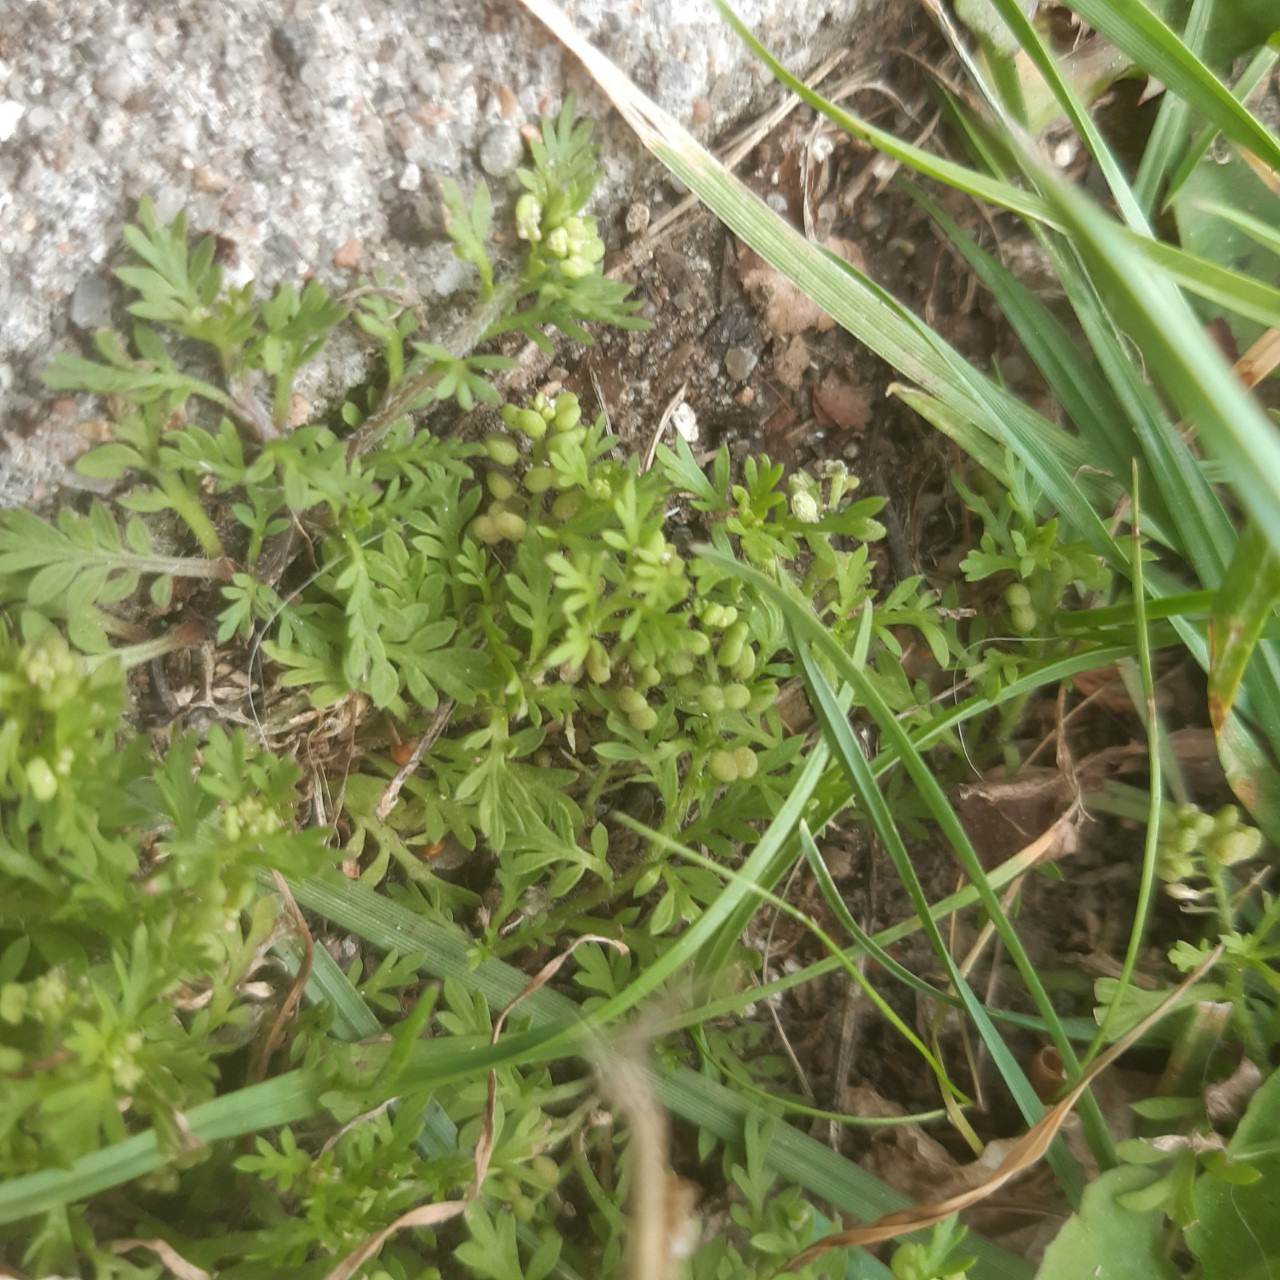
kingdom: Plantae
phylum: Tracheophyta
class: Magnoliopsida
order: Brassicales
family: Brassicaceae
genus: Lepidium
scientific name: Lepidium didymum
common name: Liden ravnefod
